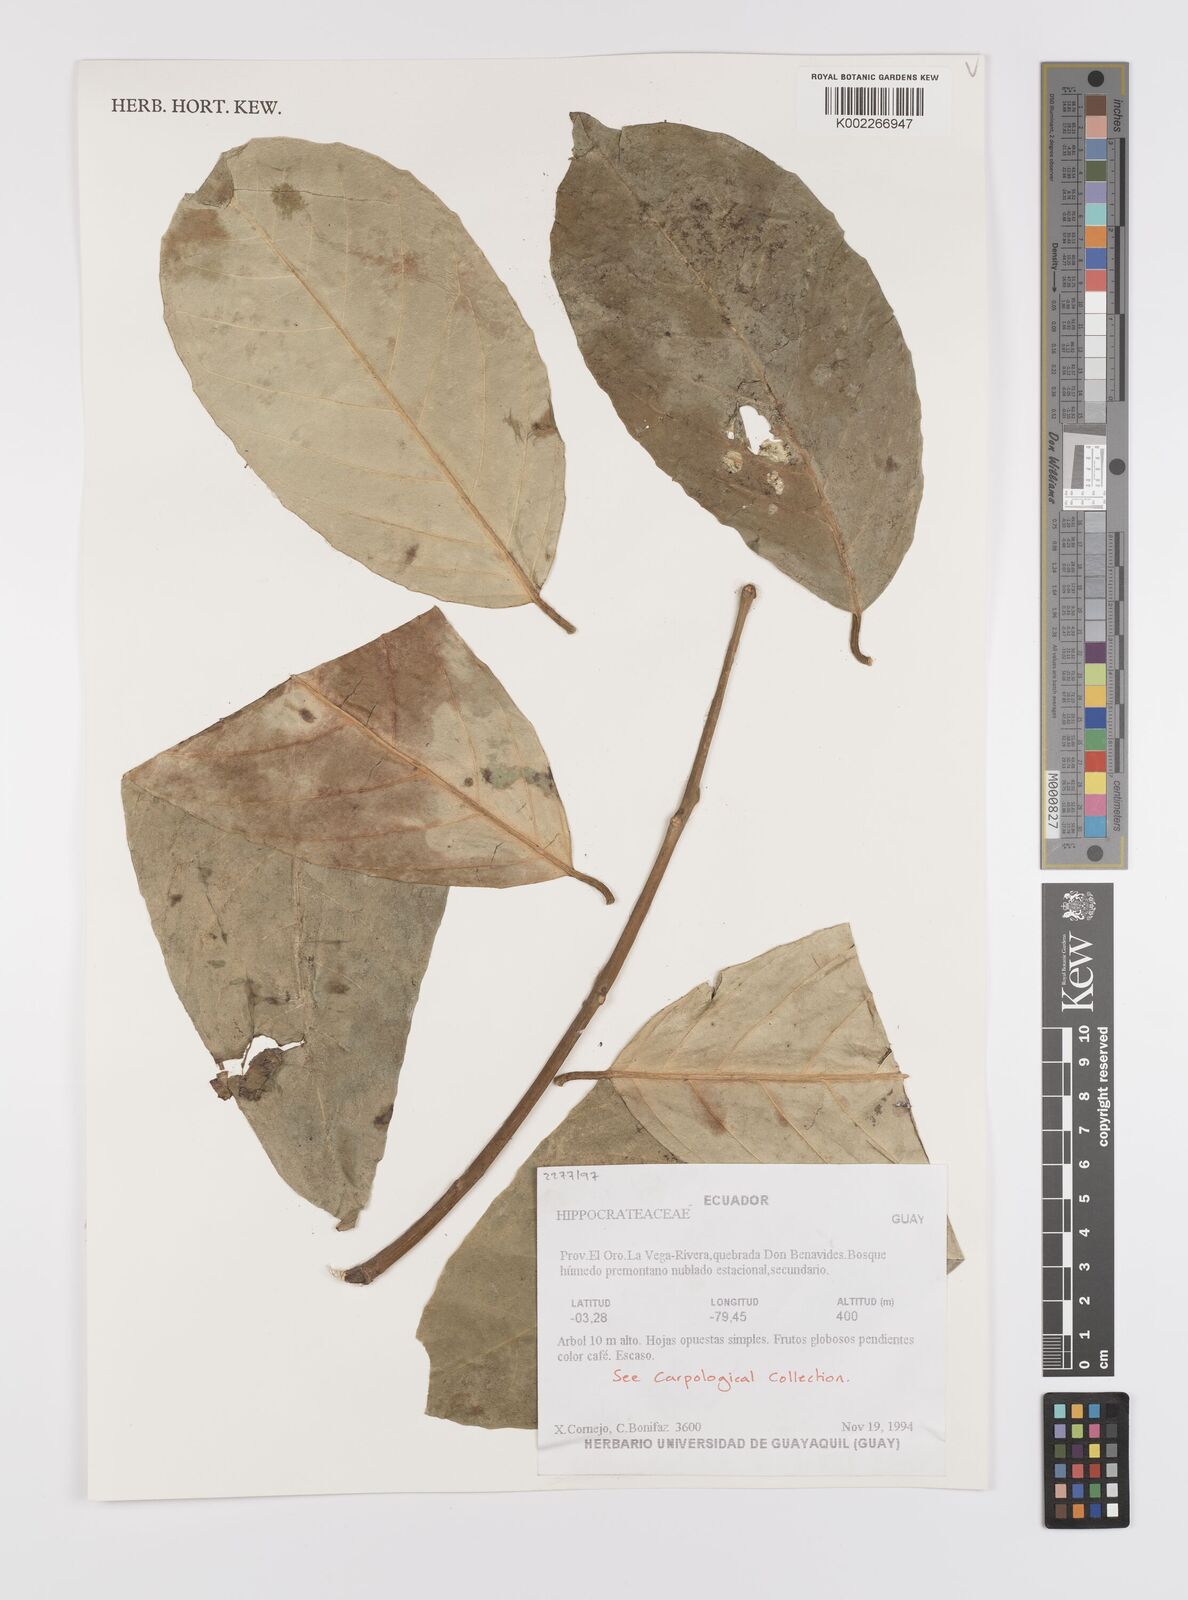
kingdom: Plantae
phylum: Tracheophyta
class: Magnoliopsida
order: Celastrales
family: Celastraceae
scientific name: Celastraceae
